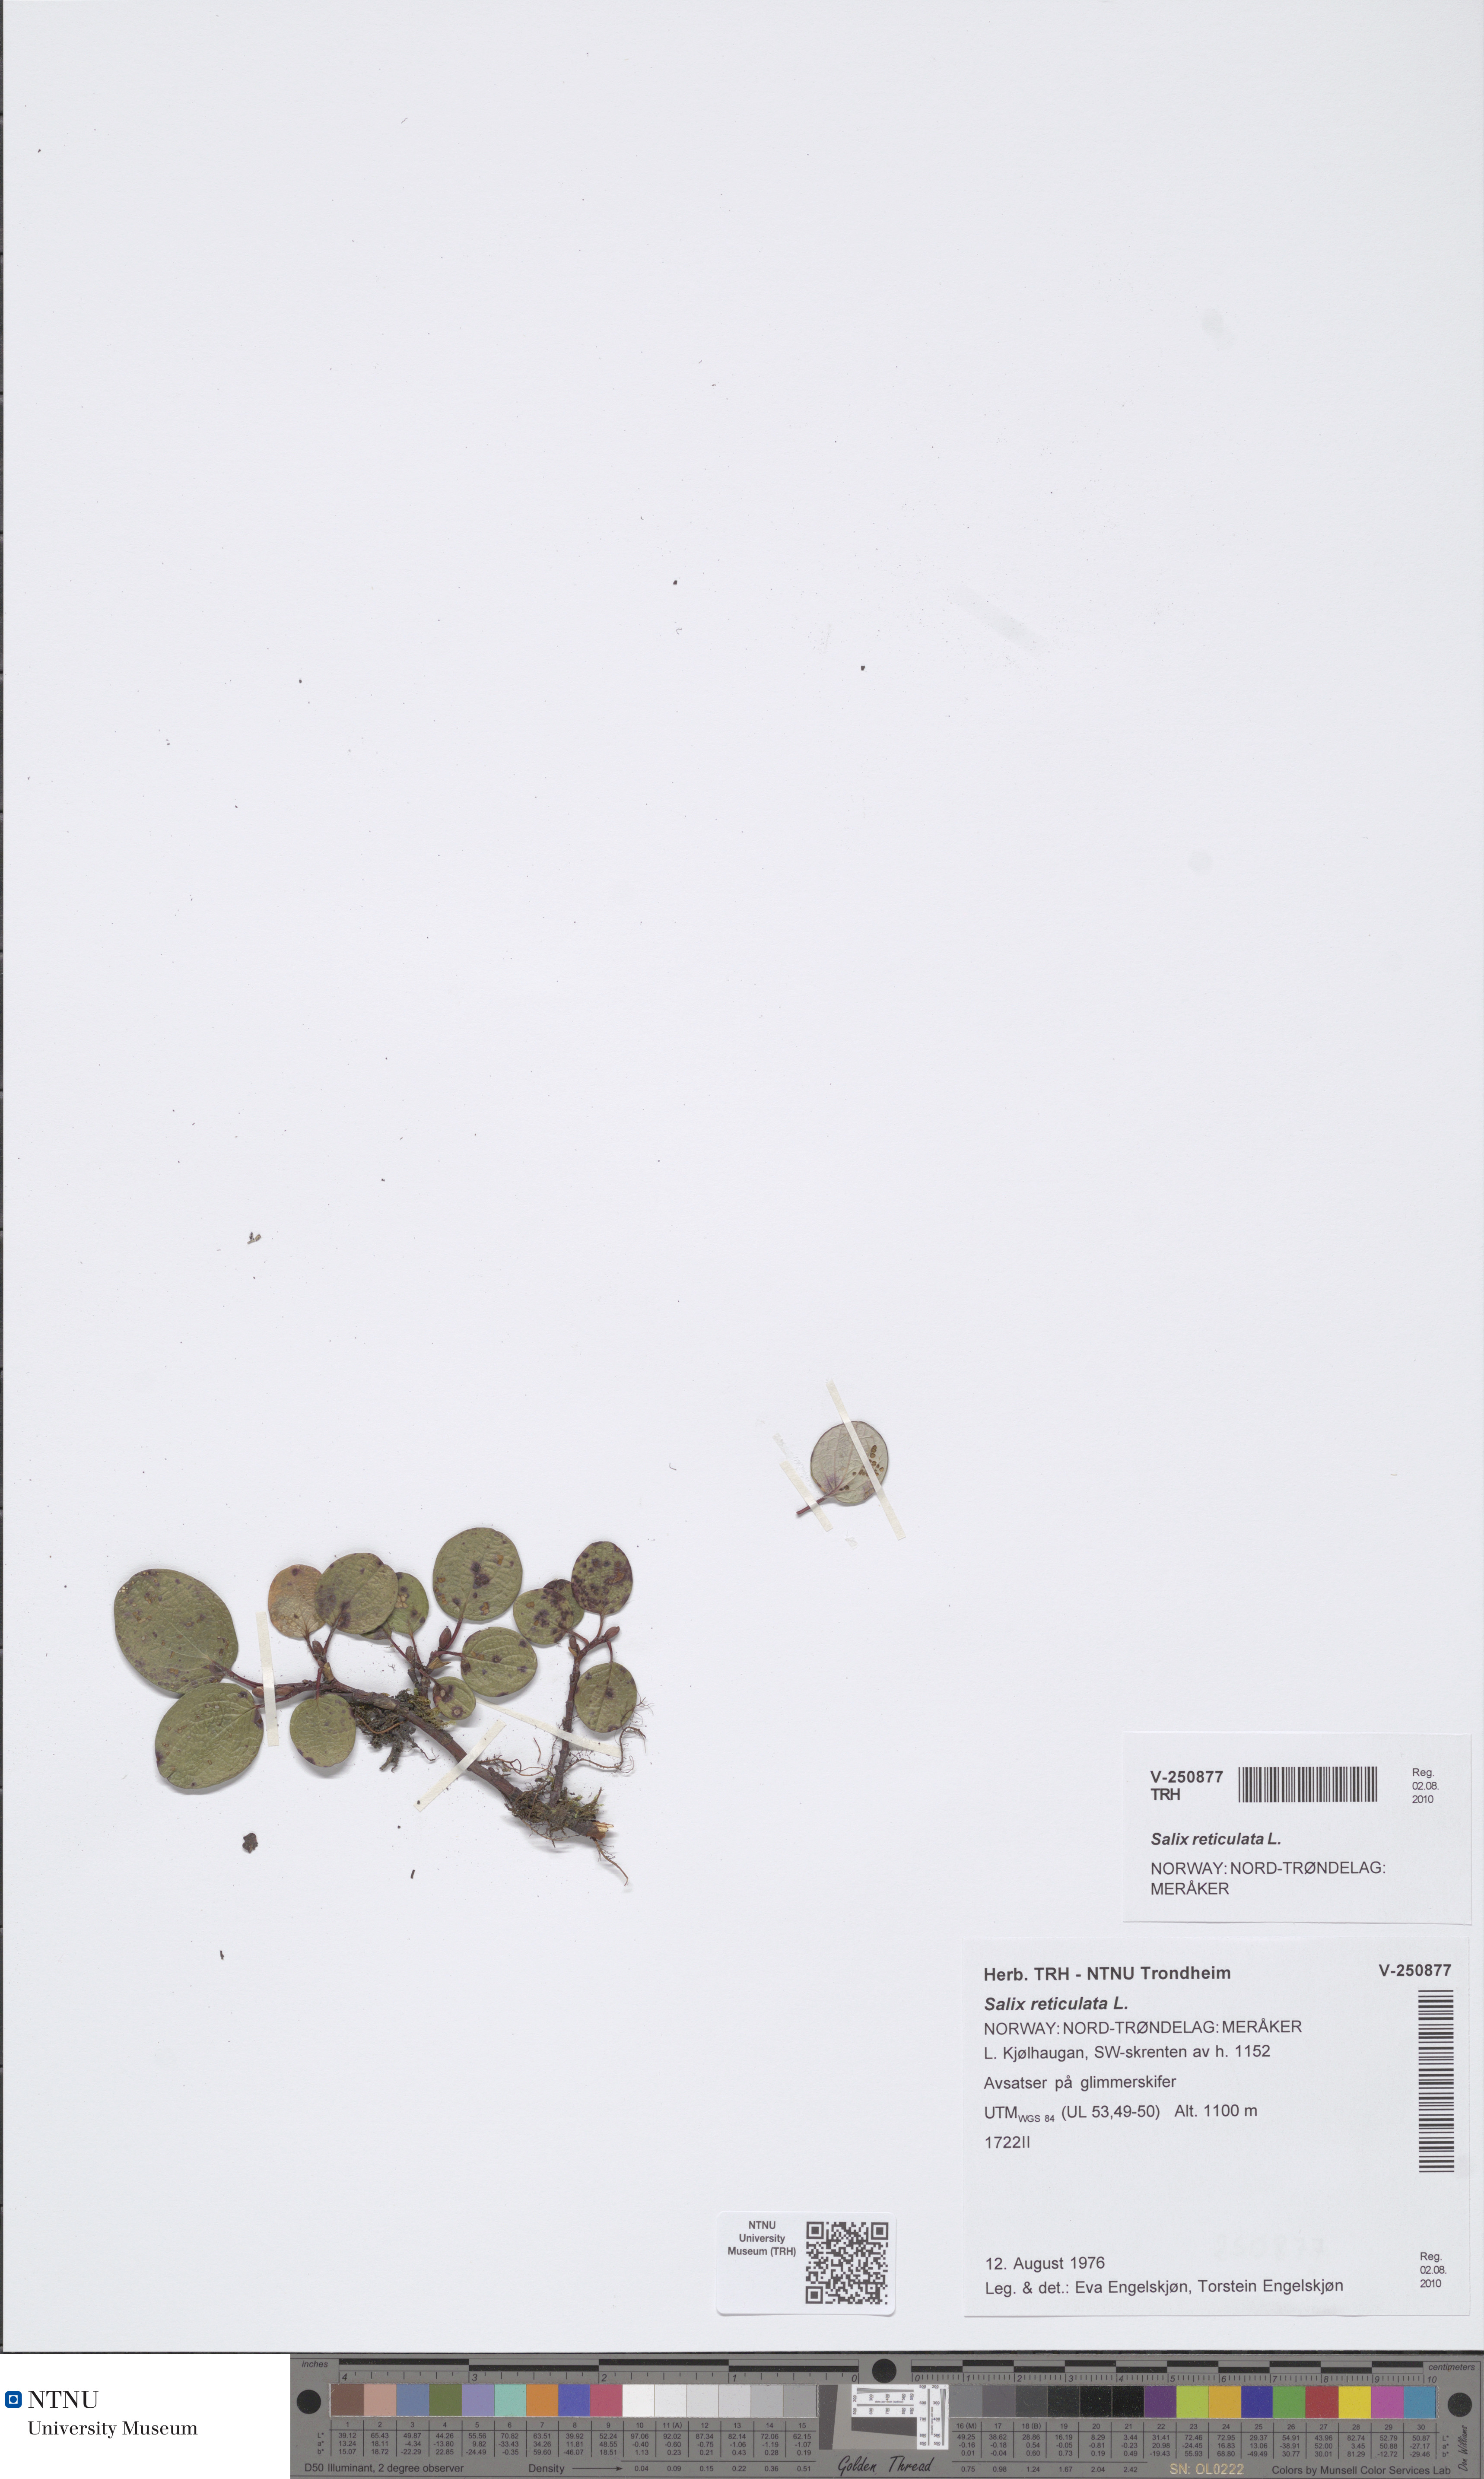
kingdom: Plantae
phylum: Tracheophyta
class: Magnoliopsida
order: Malpighiales
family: Salicaceae
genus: Salix
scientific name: Salix reticulata
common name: Net-leaved willow
